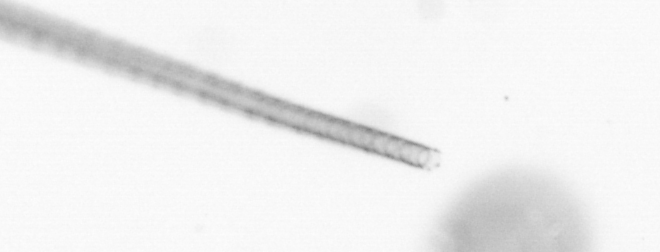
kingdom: Chromista
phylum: Ochrophyta
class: Bacillariophyceae
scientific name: Bacillariophyceae
